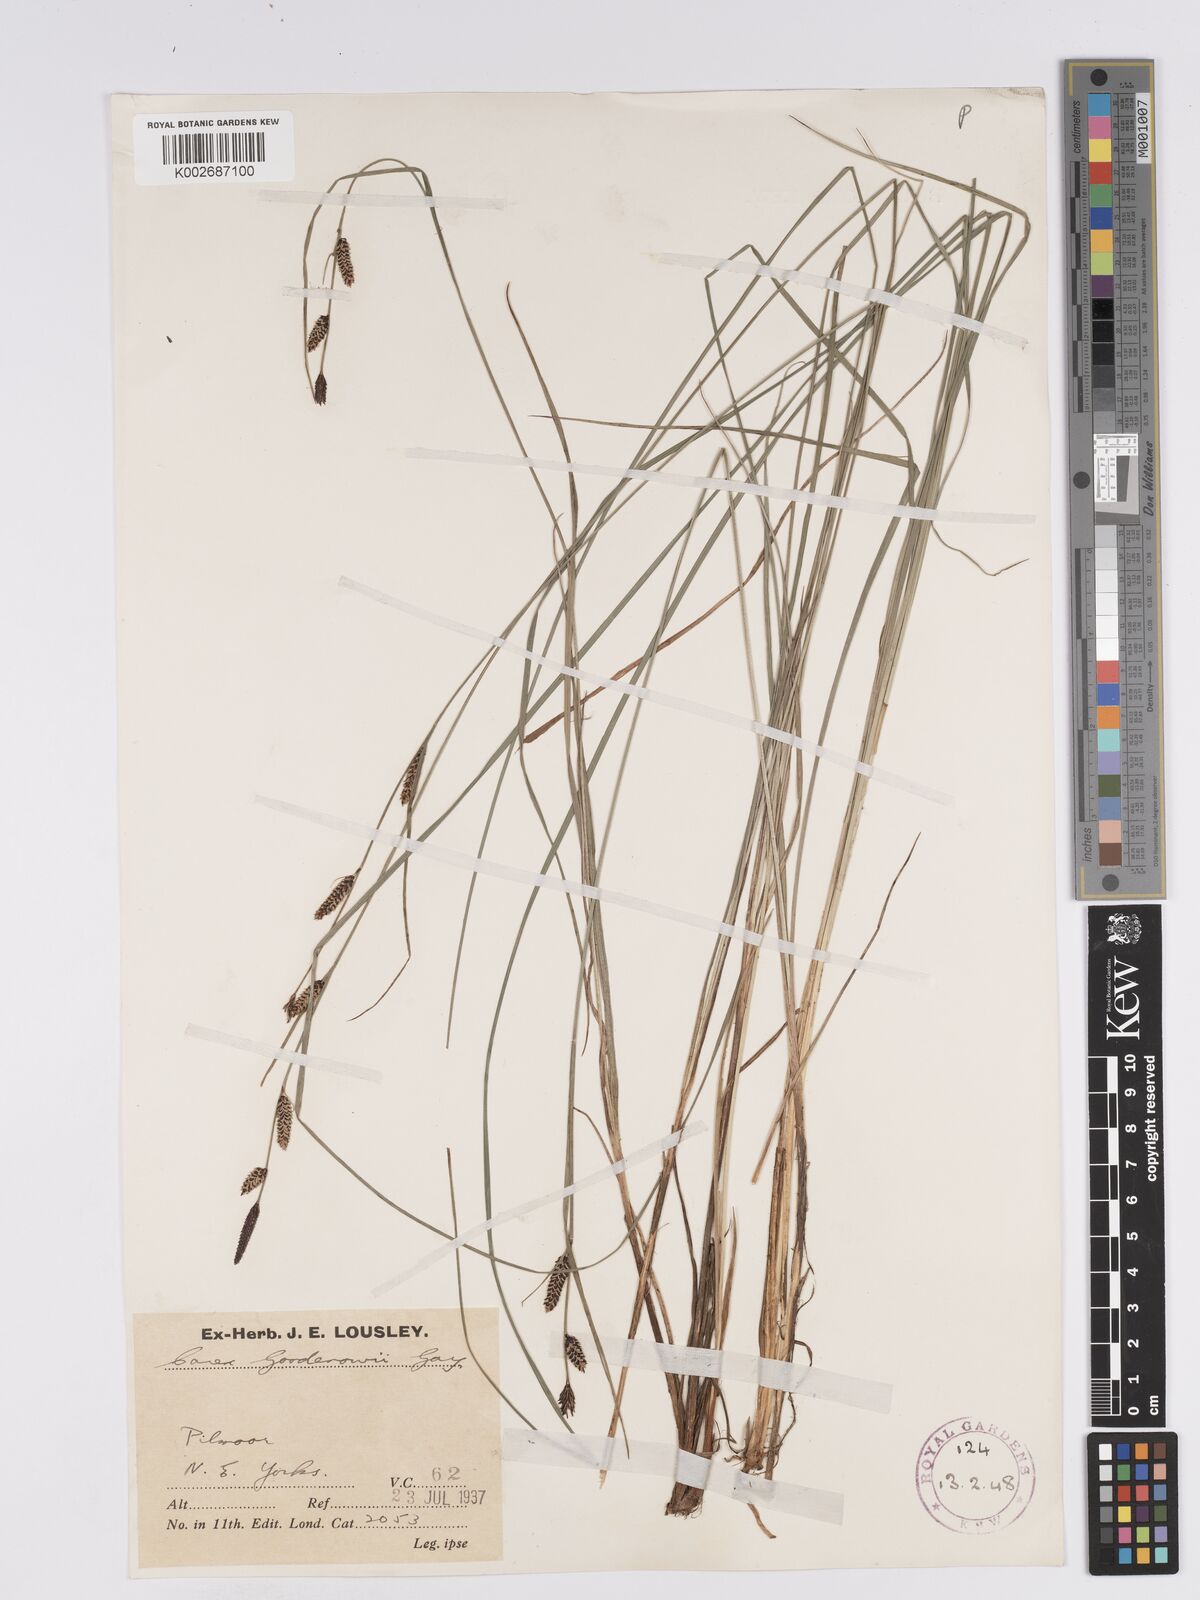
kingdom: Plantae
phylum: Tracheophyta
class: Liliopsida
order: Poales
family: Cyperaceae
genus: Carex
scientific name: Carex nigra
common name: Common sedge
